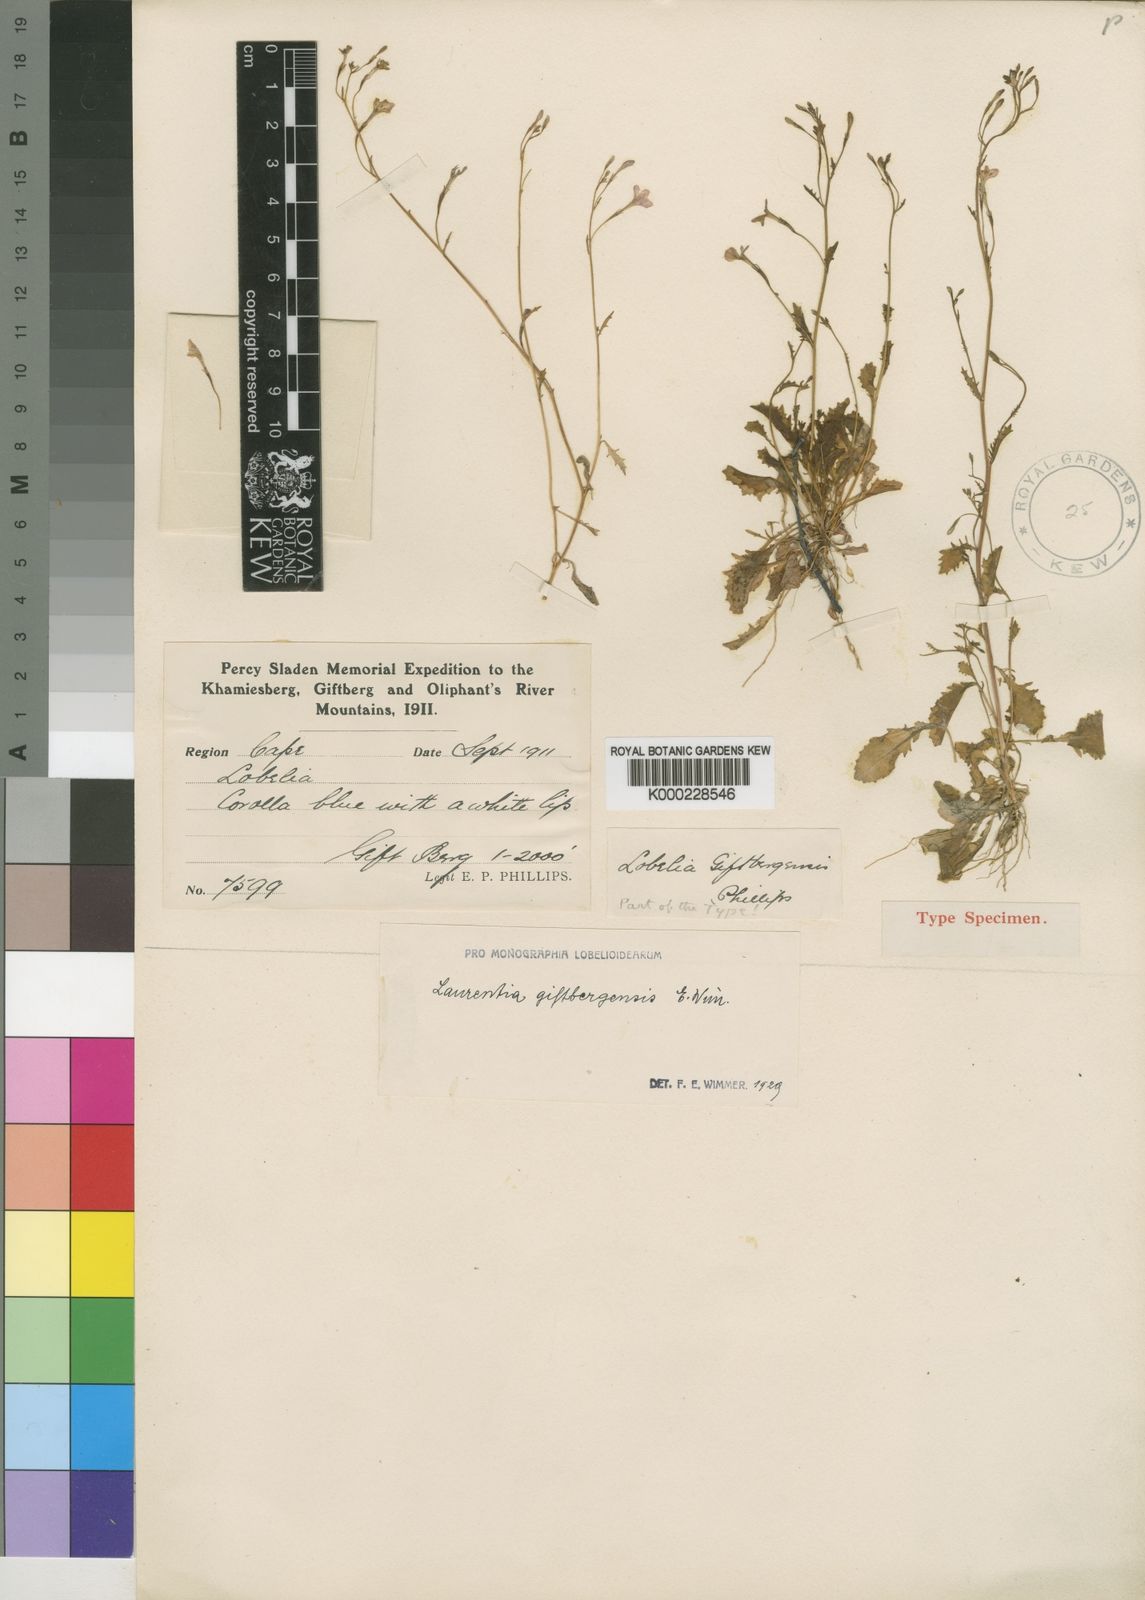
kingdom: Plantae
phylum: Tracheophyta
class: Magnoliopsida
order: Asterales
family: Campanulaceae
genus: Wimmerella
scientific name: Wimmerella giftbergensis
